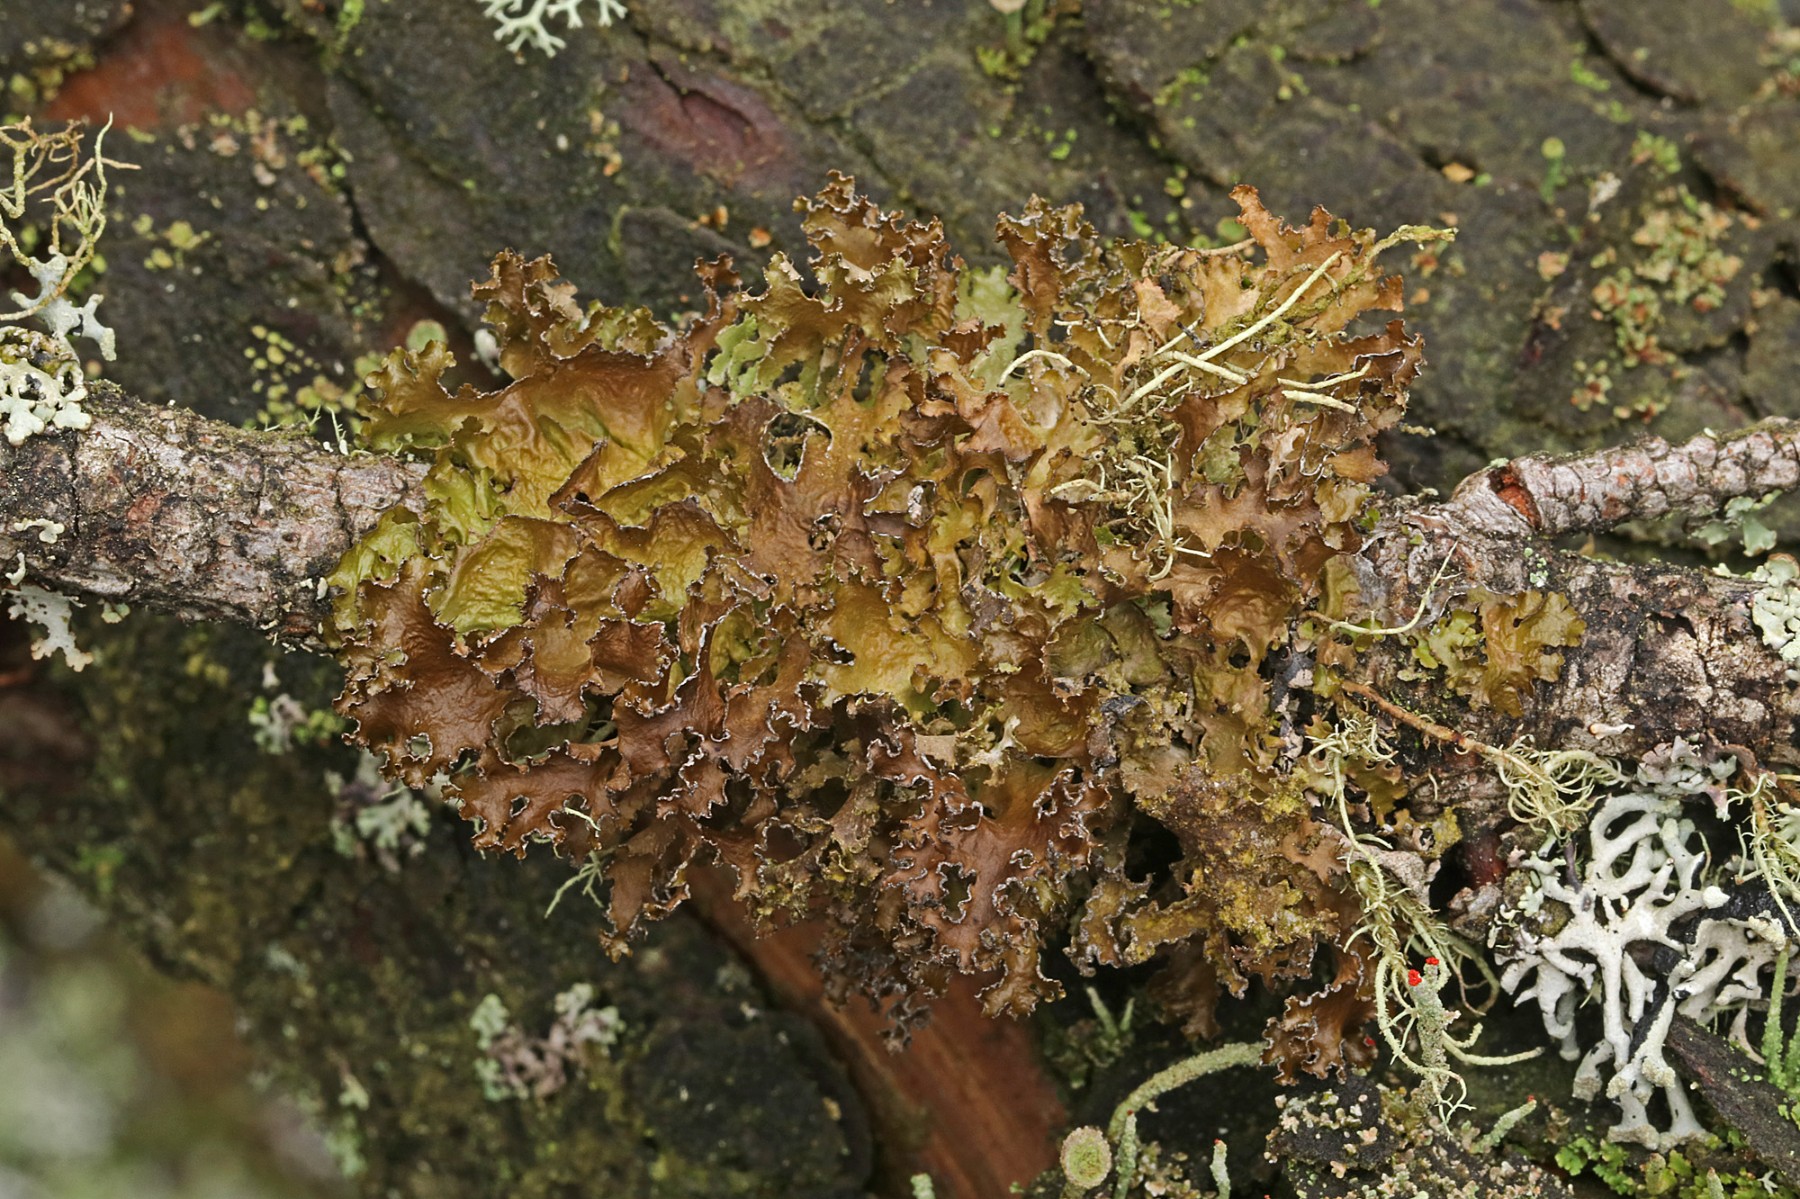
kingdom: Fungi
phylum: Ascomycota
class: Lecanoromycetes
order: Lecanorales
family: Parmeliaceae
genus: Nephromopsis
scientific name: Nephromopsis chlorophylla
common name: olivenbrun kruslav
